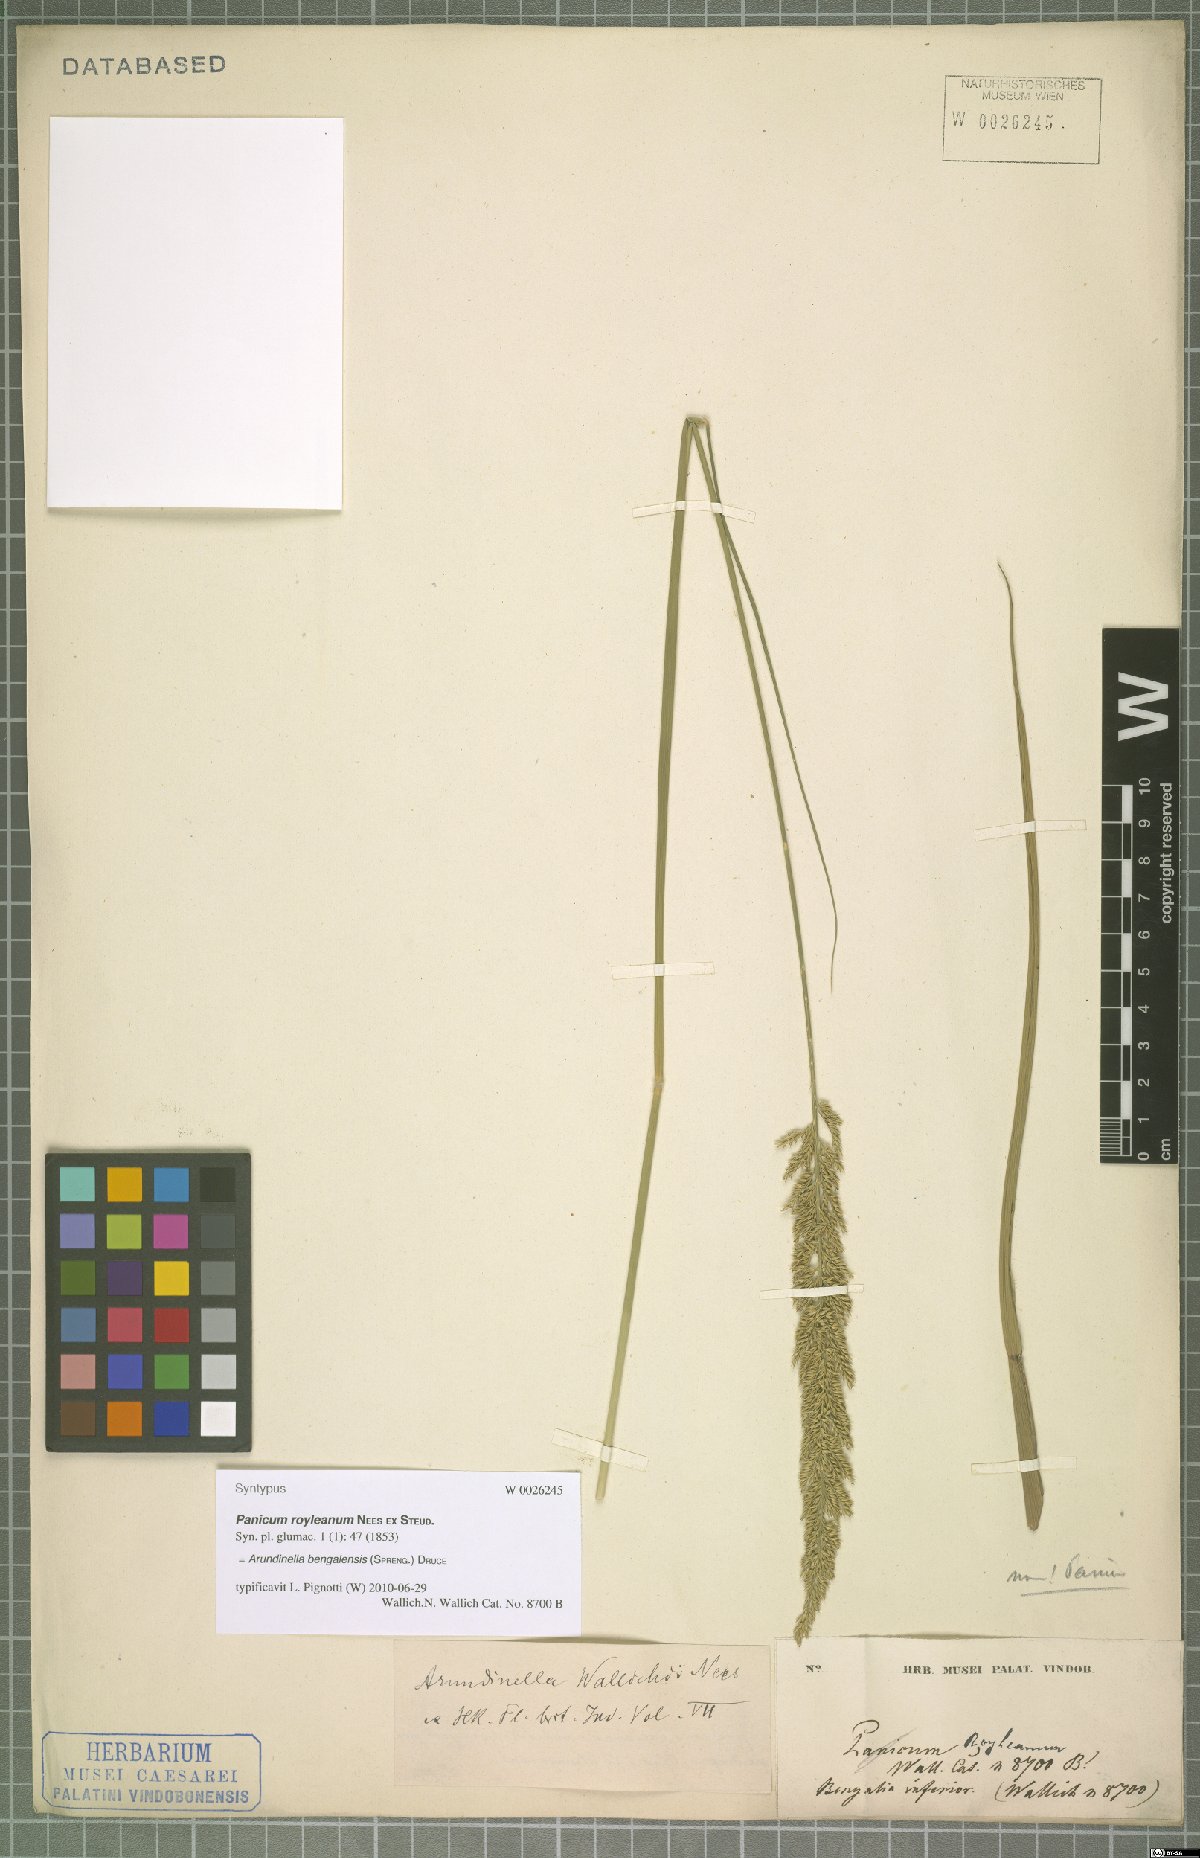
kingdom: Plantae
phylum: Tracheophyta
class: Liliopsida
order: Poales
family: Poaceae
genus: Arundinella
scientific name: Arundinella bengalensis
